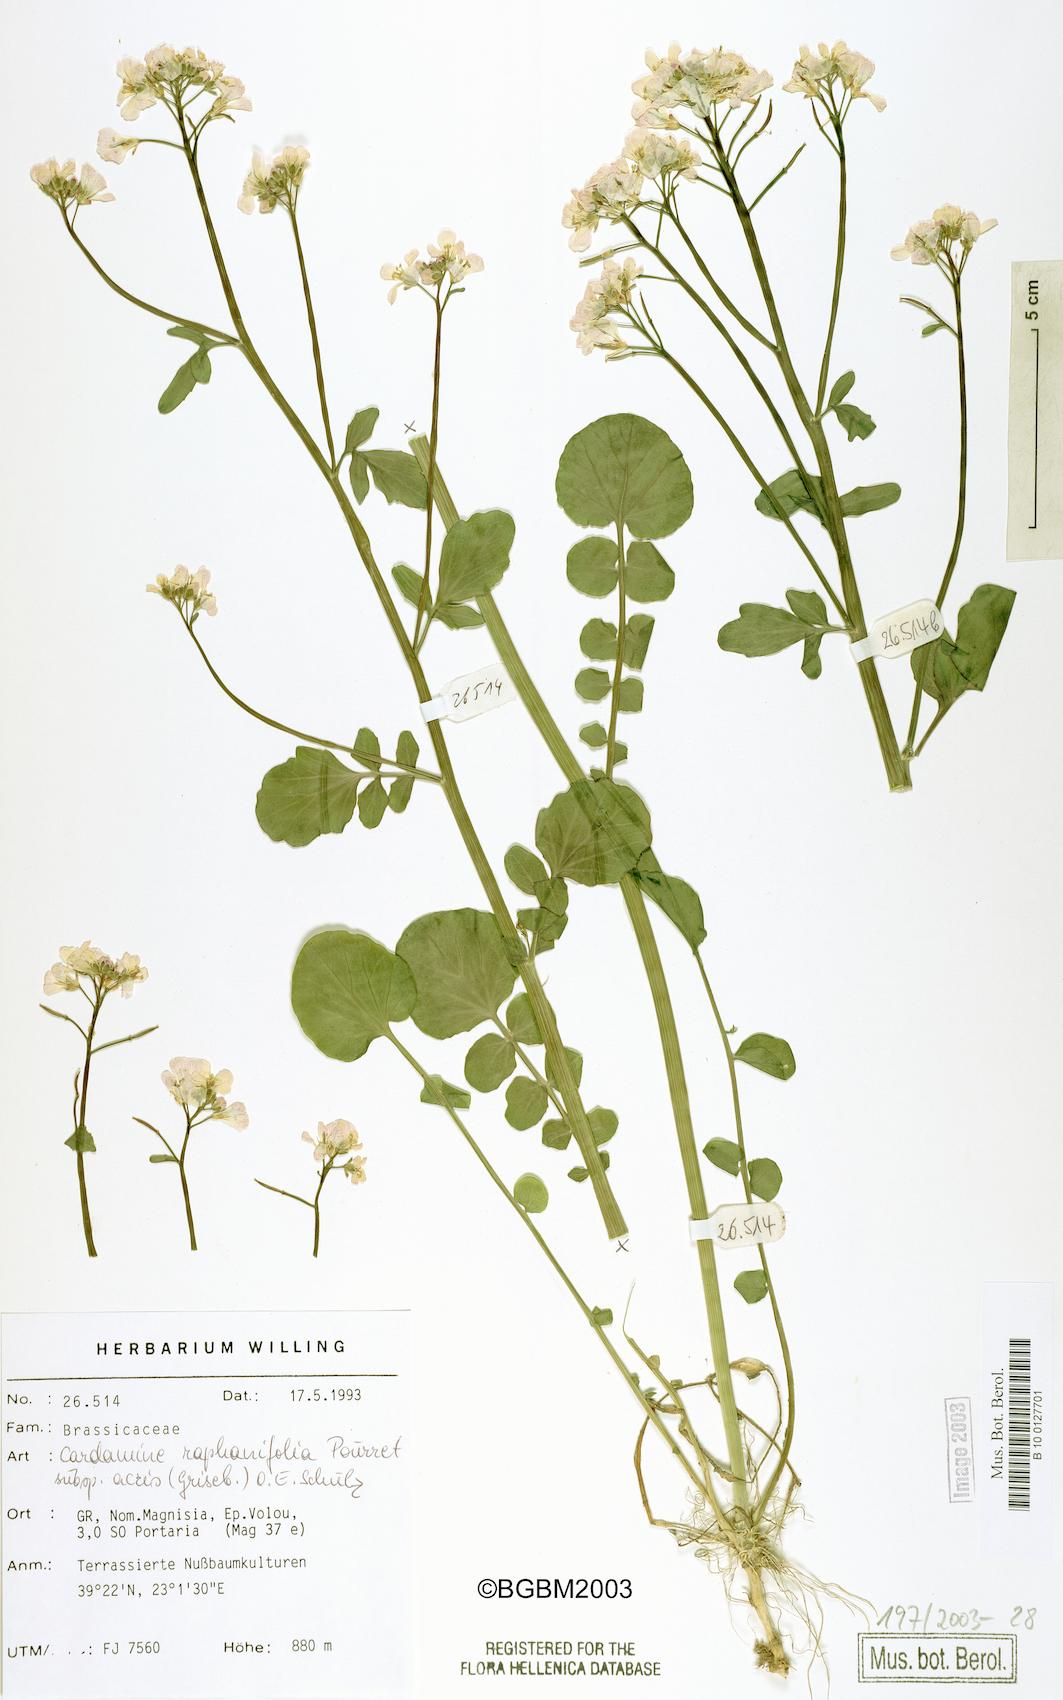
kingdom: Plantae
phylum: Tracheophyta
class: Magnoliopsida
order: Brassicales
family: Brassicaceae
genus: Cardamine
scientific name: Cardamine raphanifolia
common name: Greater cuckooflower
